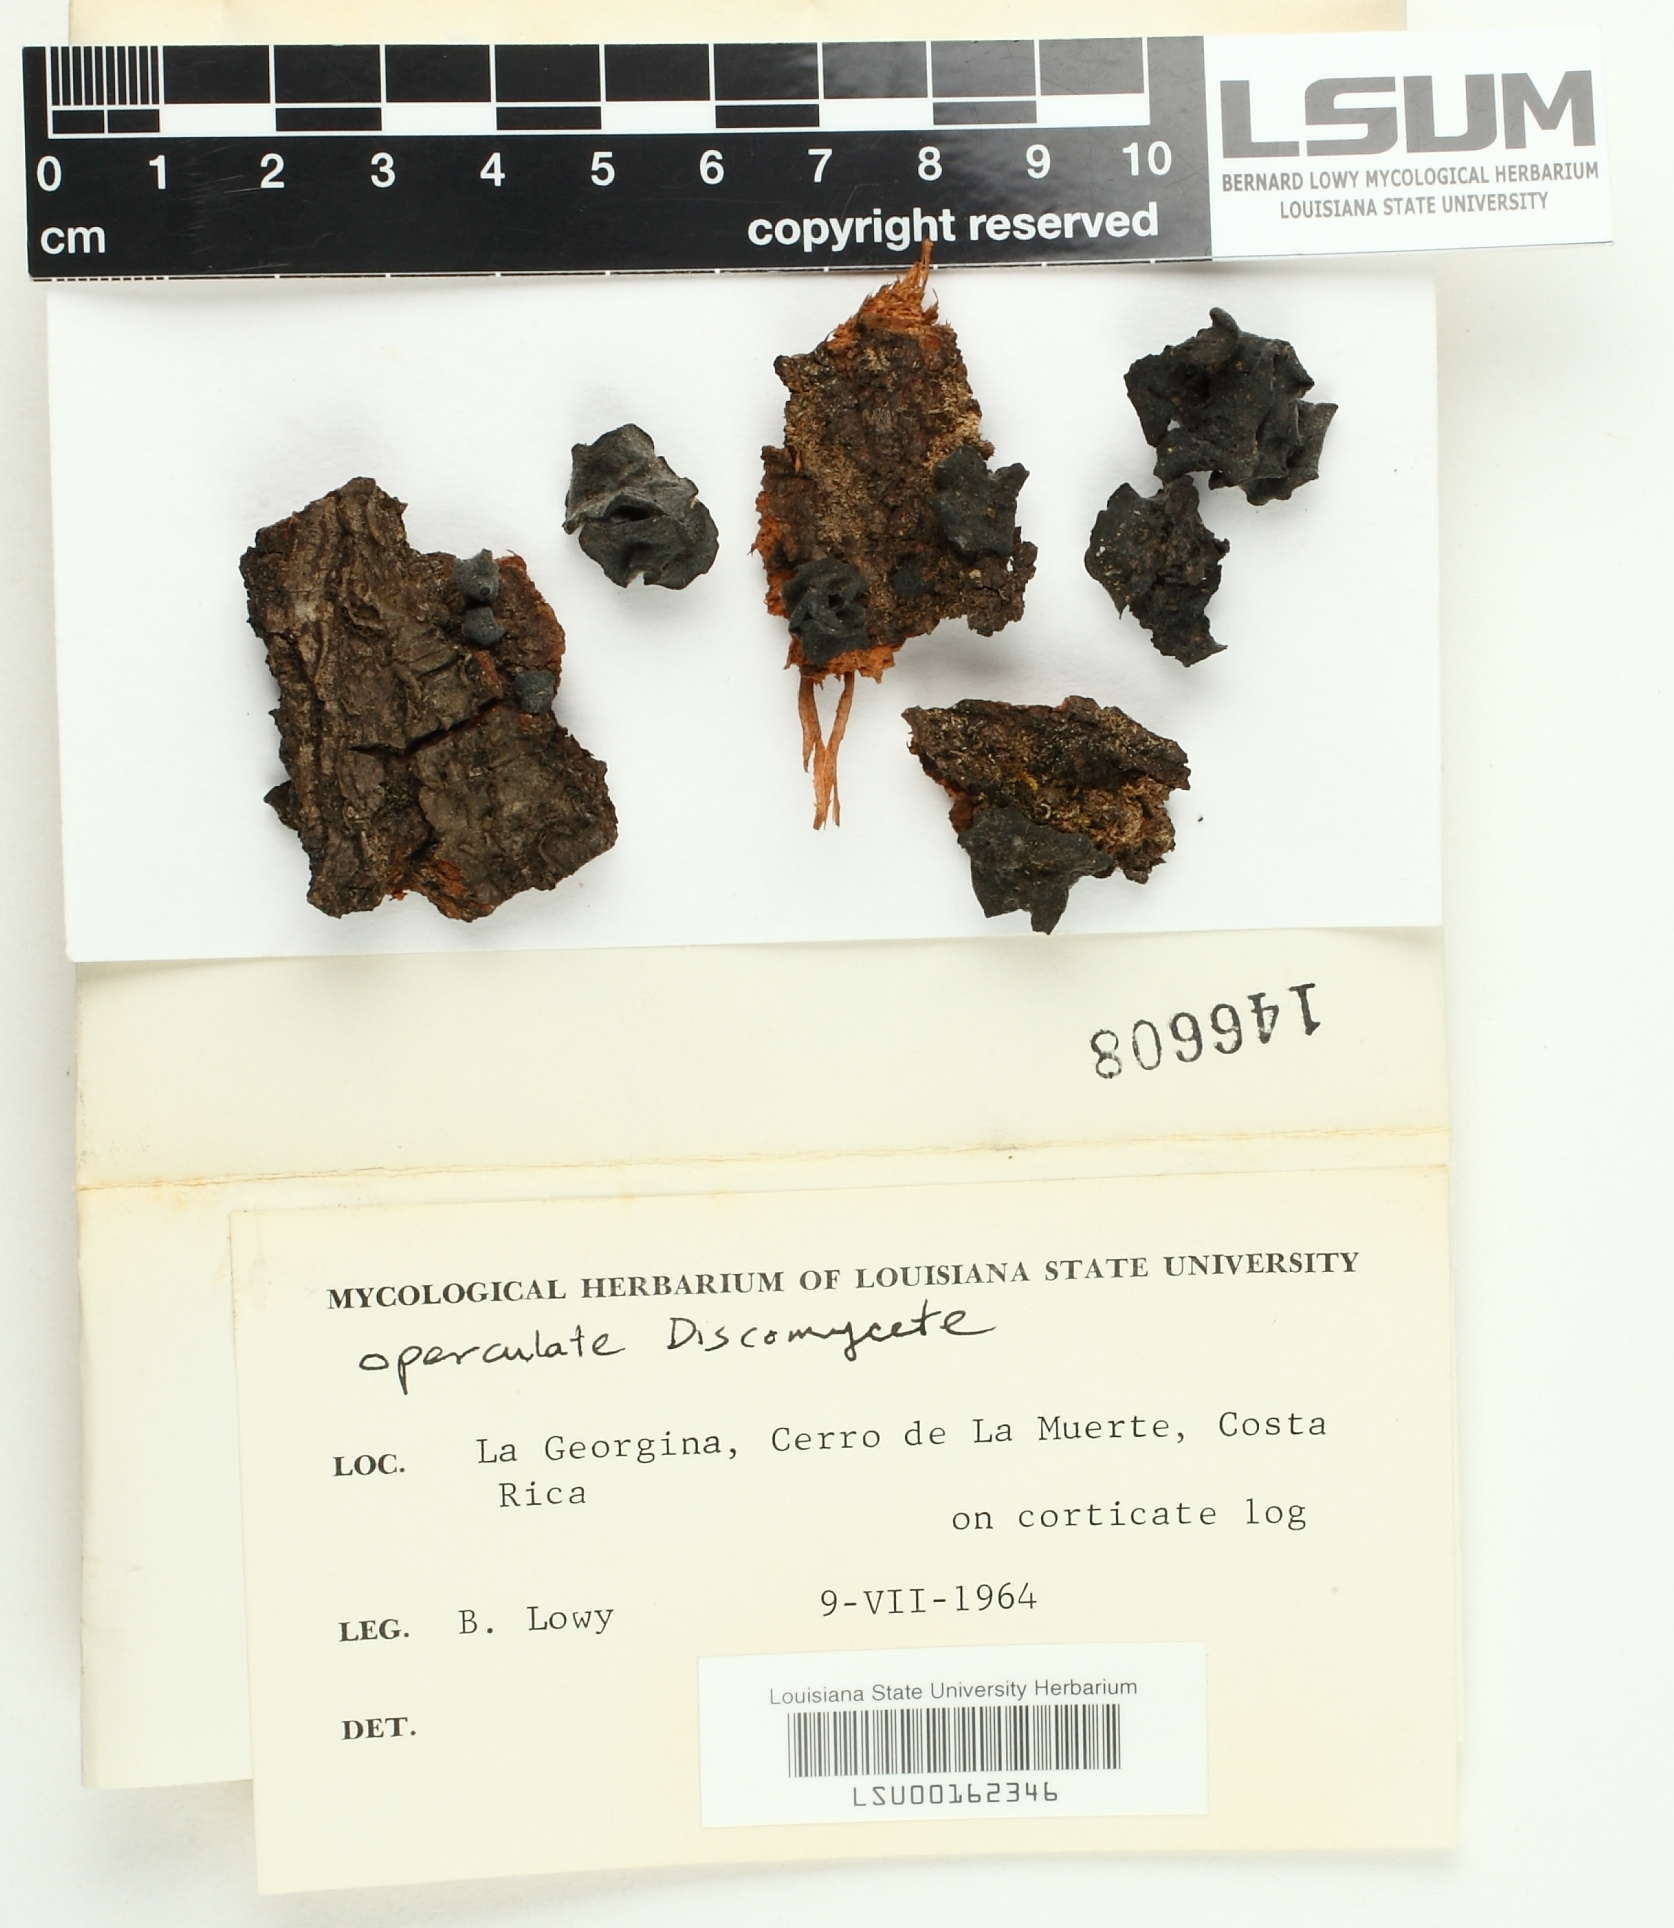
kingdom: Fungi
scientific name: Fungi
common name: Fungi
